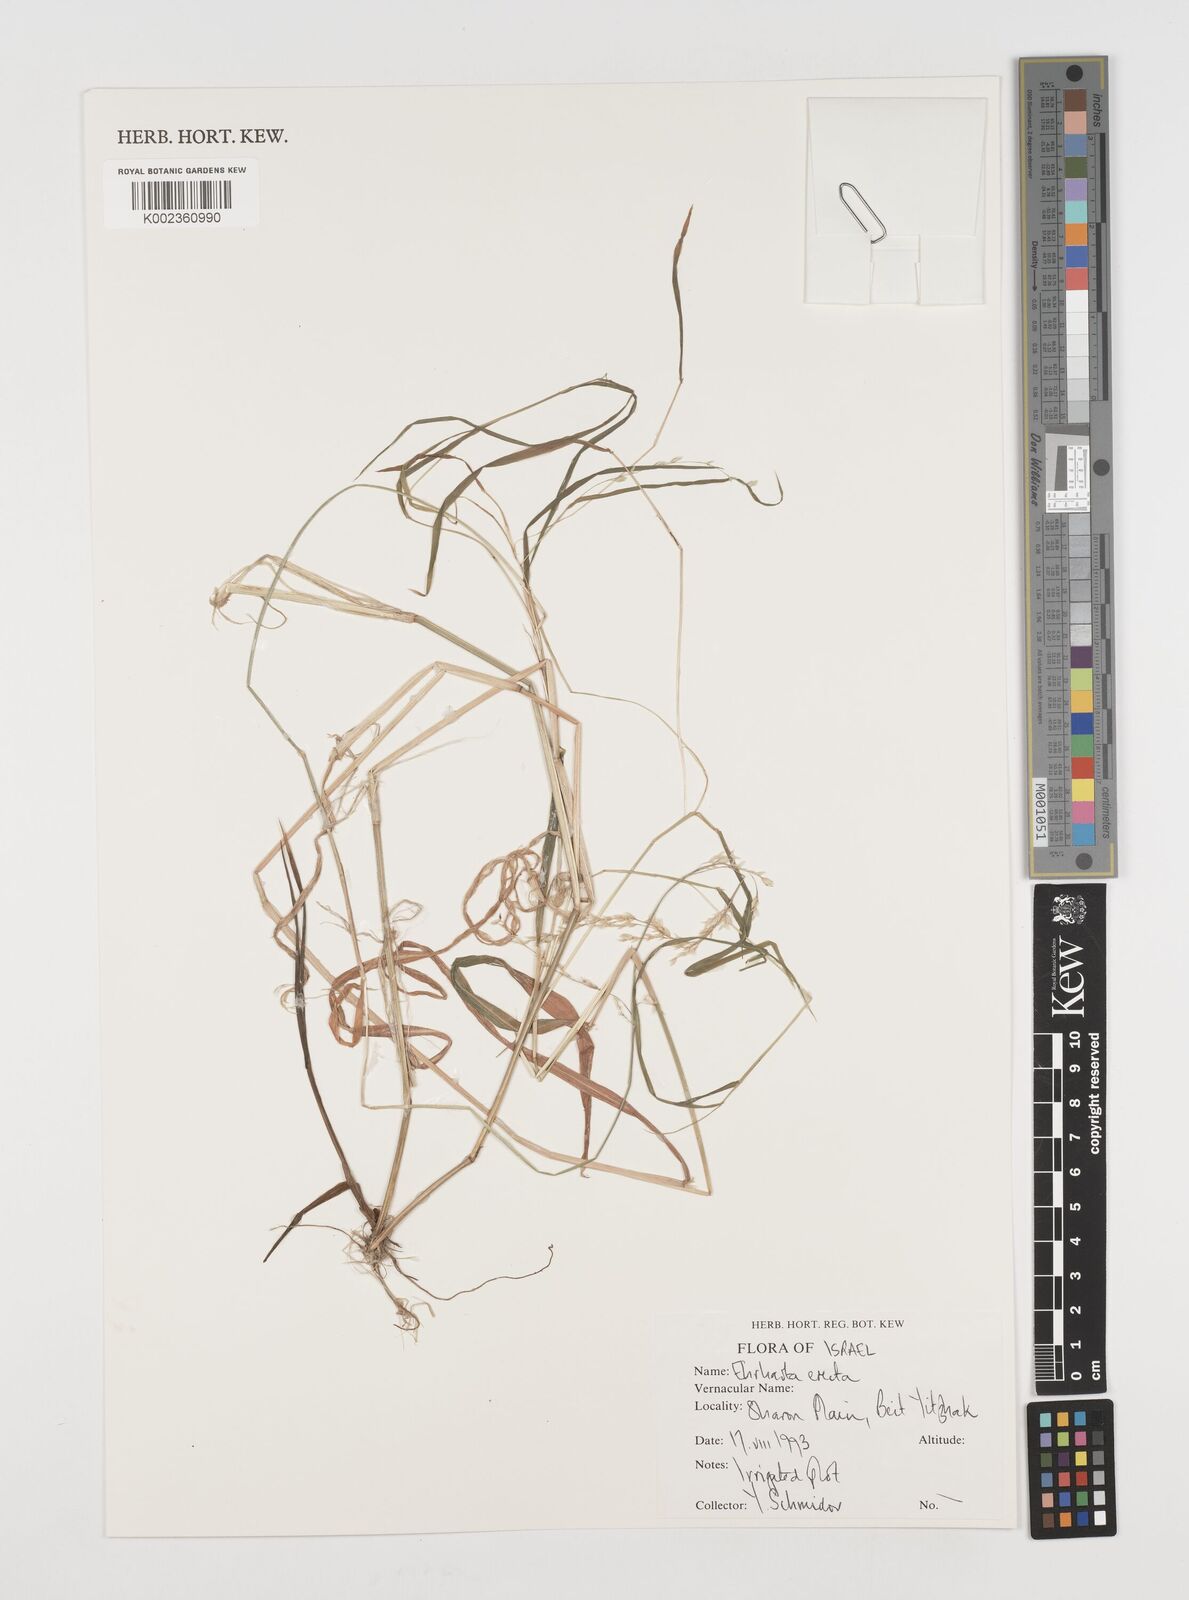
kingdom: Plantae
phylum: Tracheophyta
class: Liliopsida
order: Poales
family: Poaceae
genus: Ehrharta
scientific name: Ehrharta erecta
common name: Panic veldtgrass
